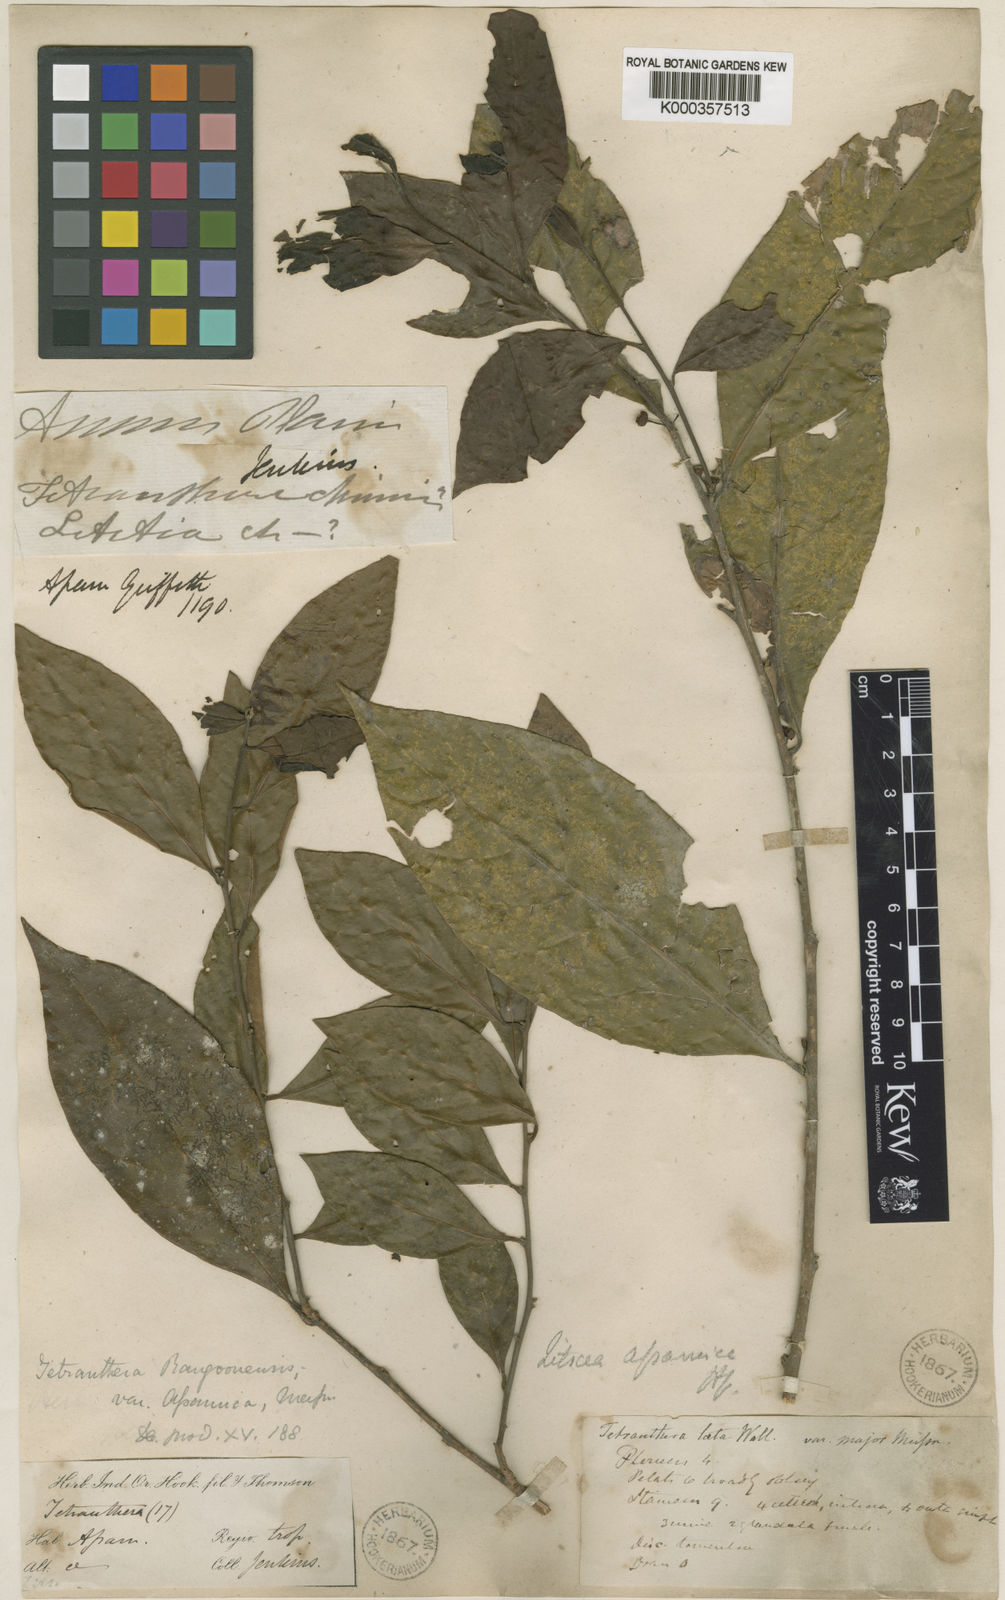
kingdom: Plantae
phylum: Tracheophyta
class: Magnoliopsida
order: Laurales
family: Lauraceae
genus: Litsea
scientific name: Litsea rangoonensis
